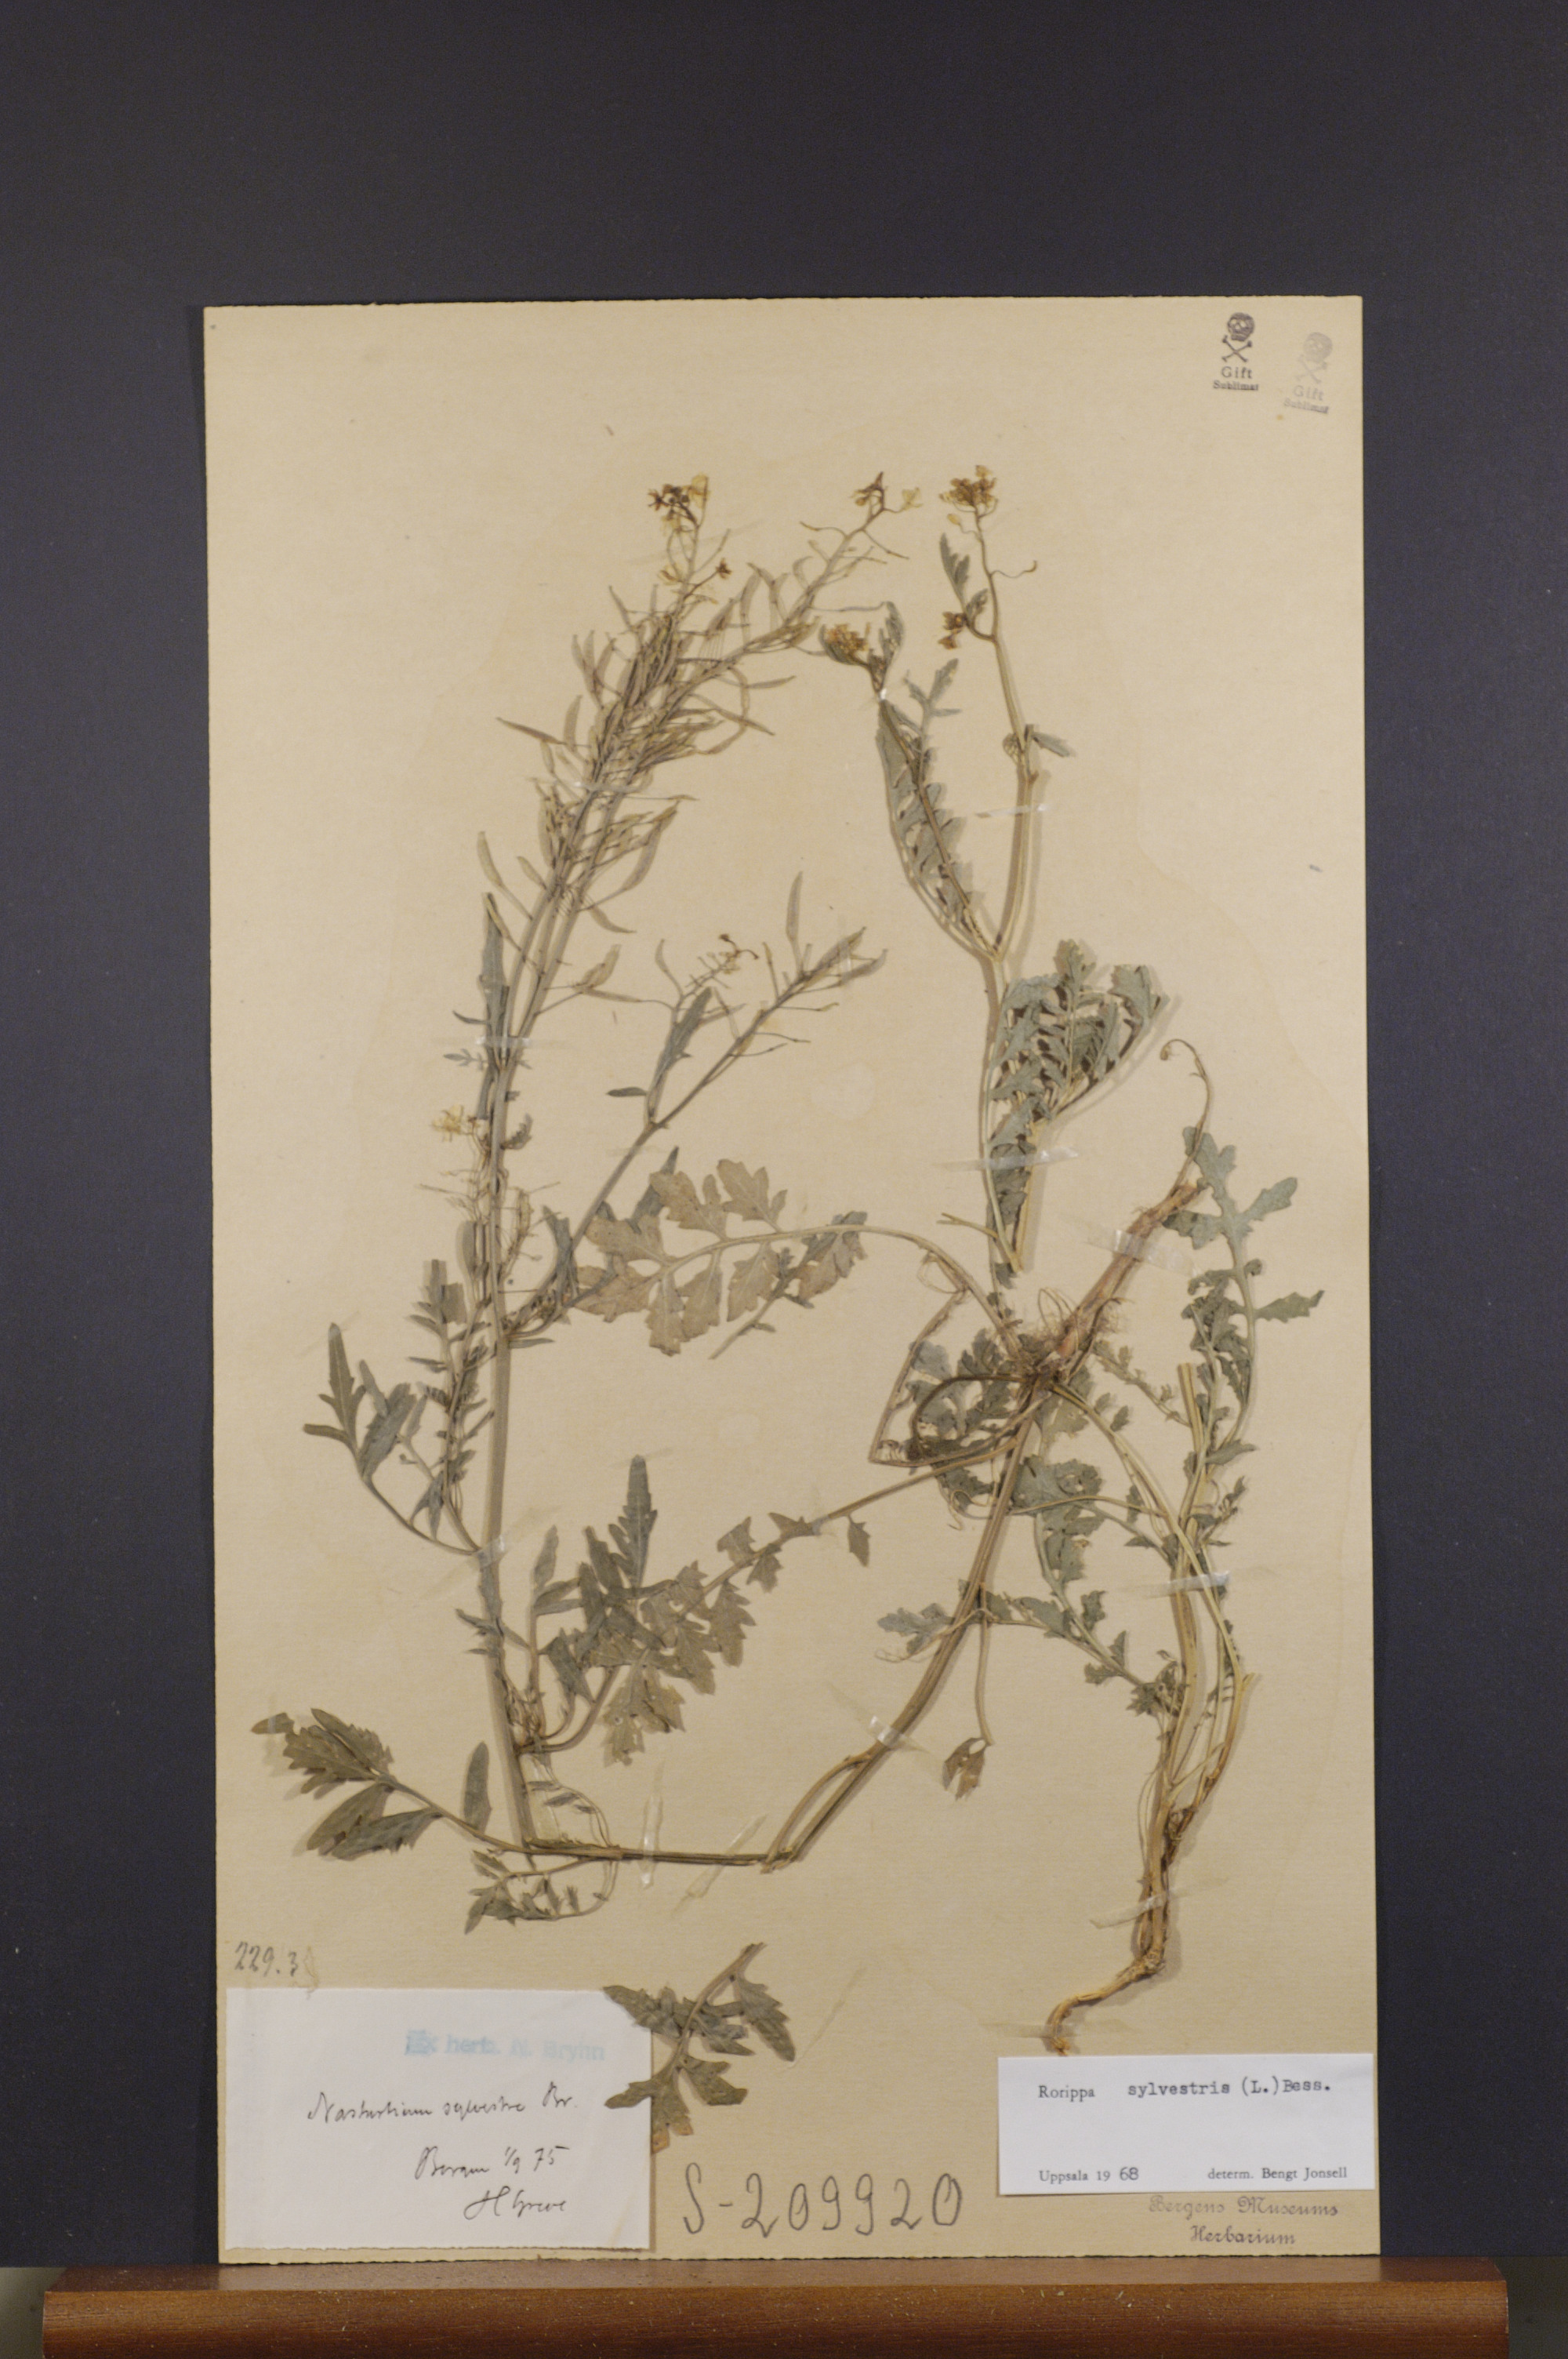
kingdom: Plantae
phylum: Tracheophyta
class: Magnoliopsida
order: Brassicales
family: Brassicaceae
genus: Rorippa
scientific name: Rorippa sylvestris
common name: Creeping yellowcress
